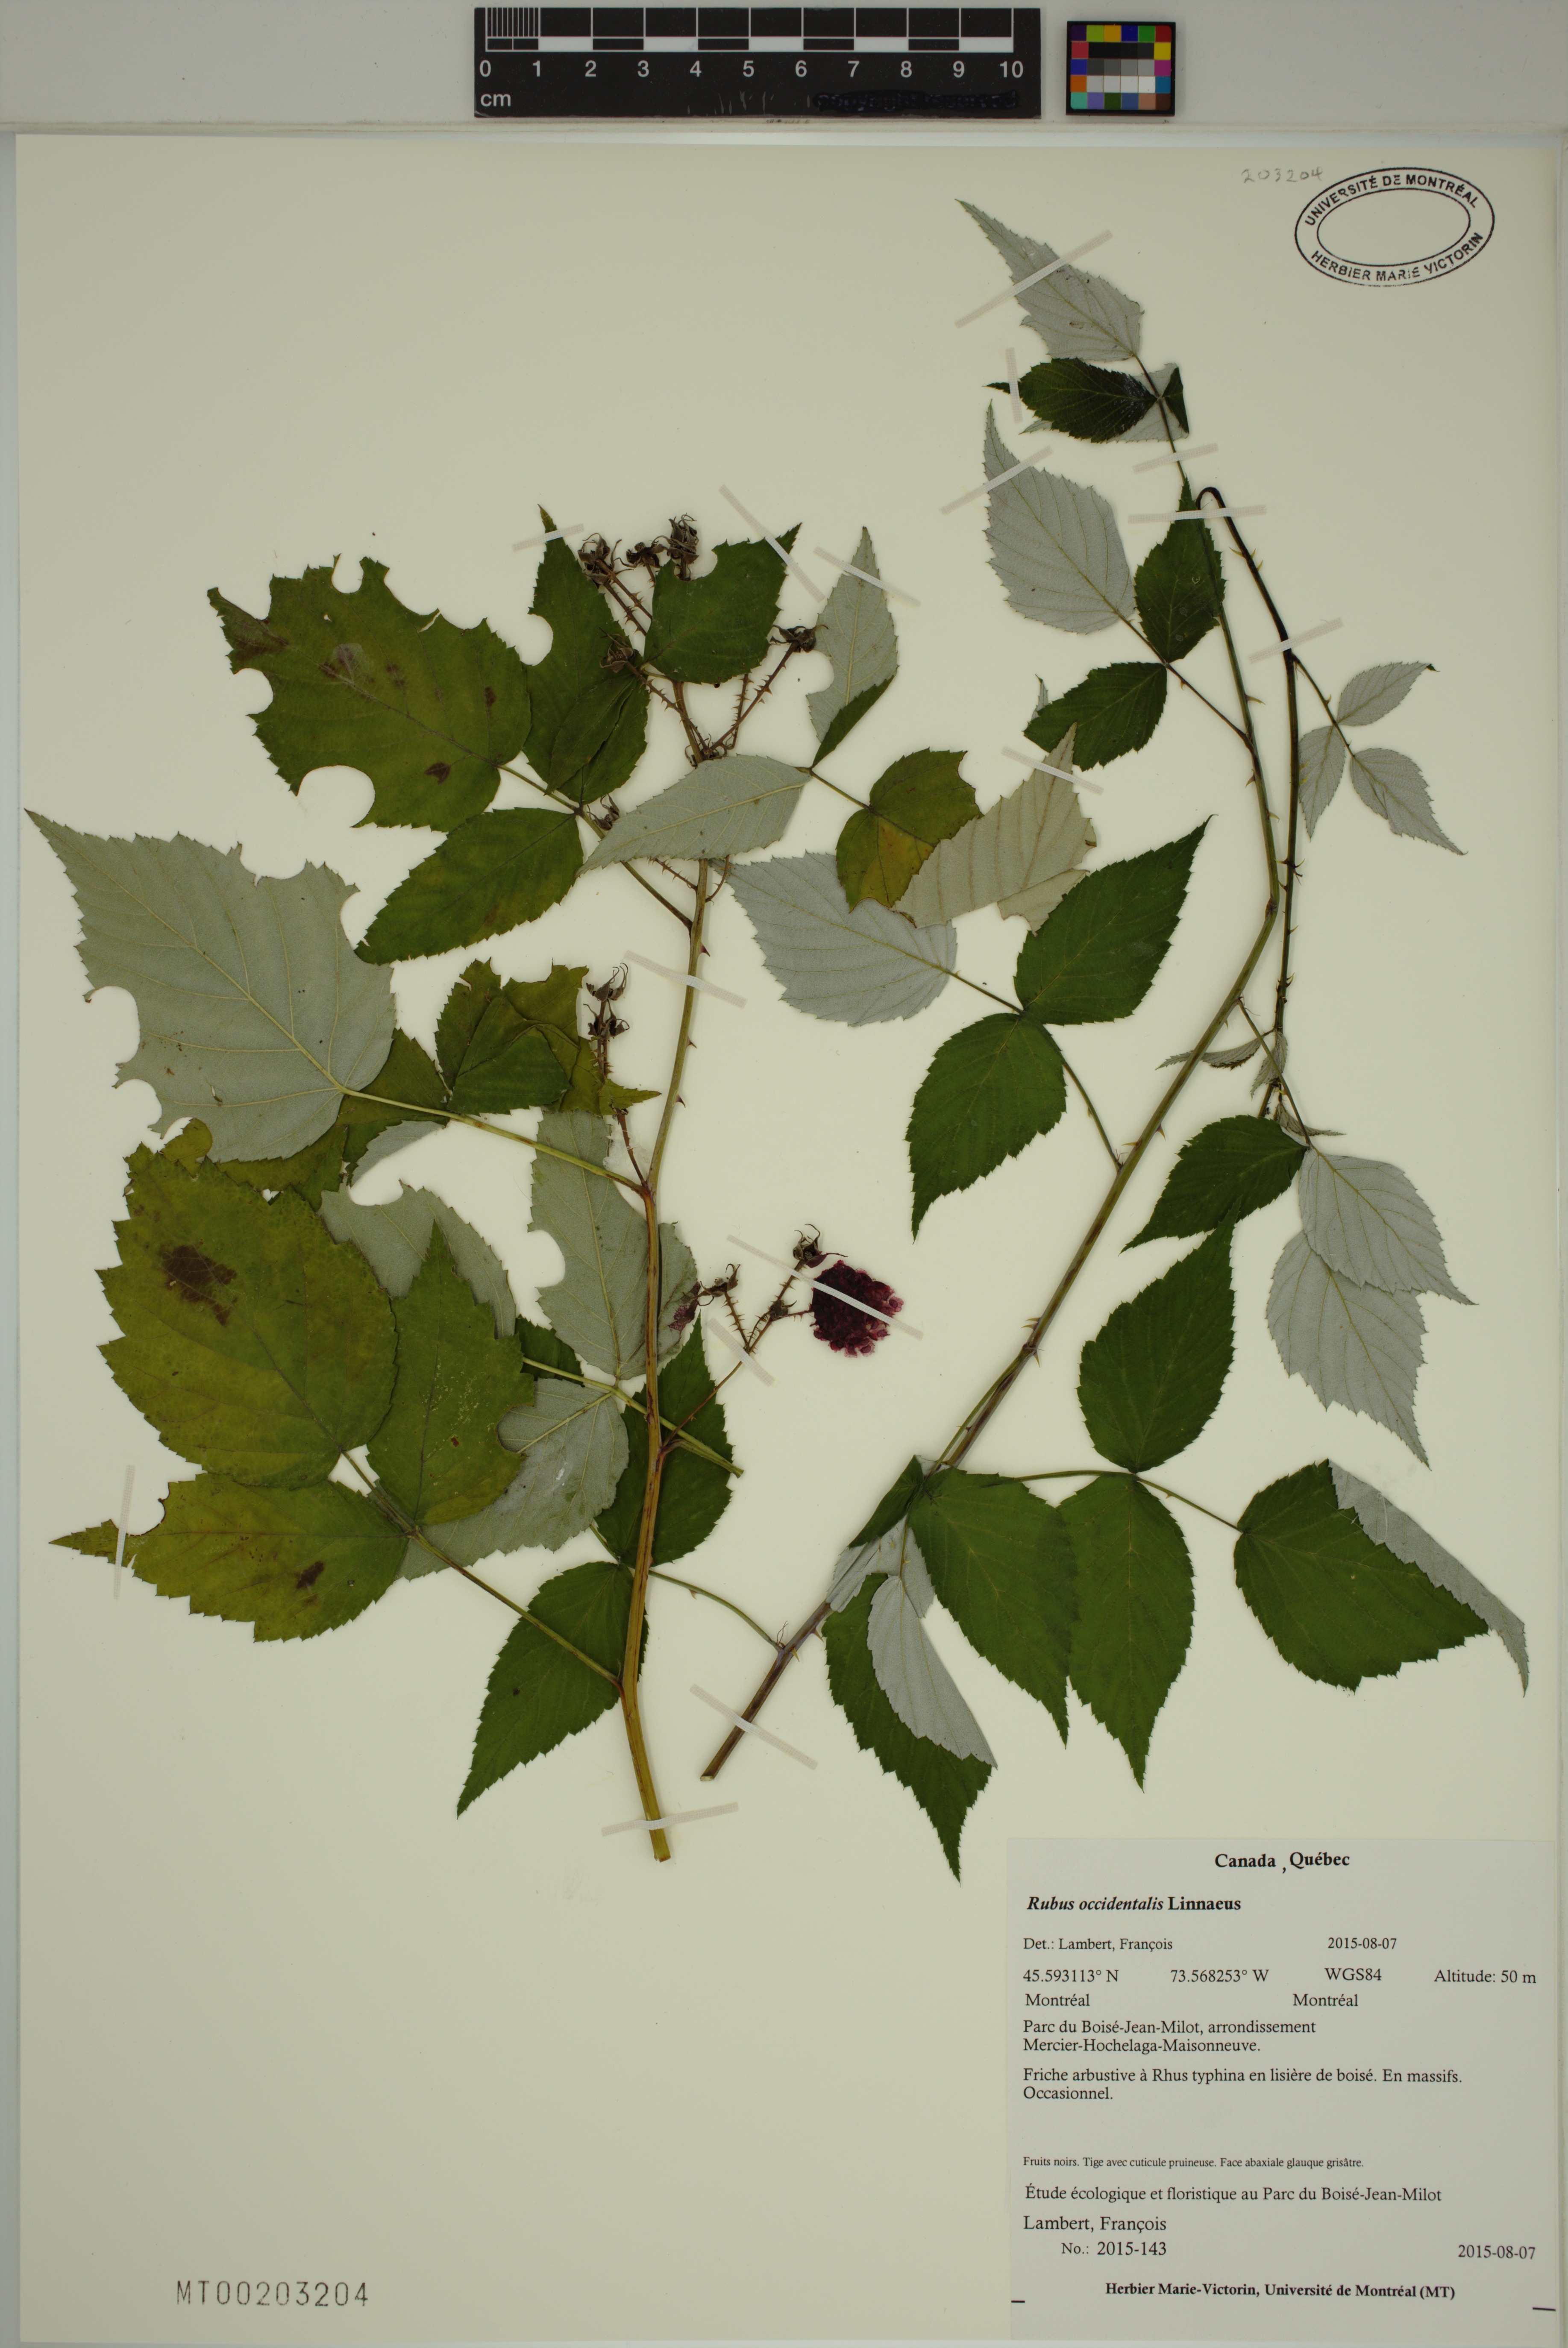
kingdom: Plantae
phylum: Tracheophyta
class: Magnoliopsida
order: Rosales
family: Rosaceae
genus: Rubus
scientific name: Rubus occidentalis
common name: Black raspberry
